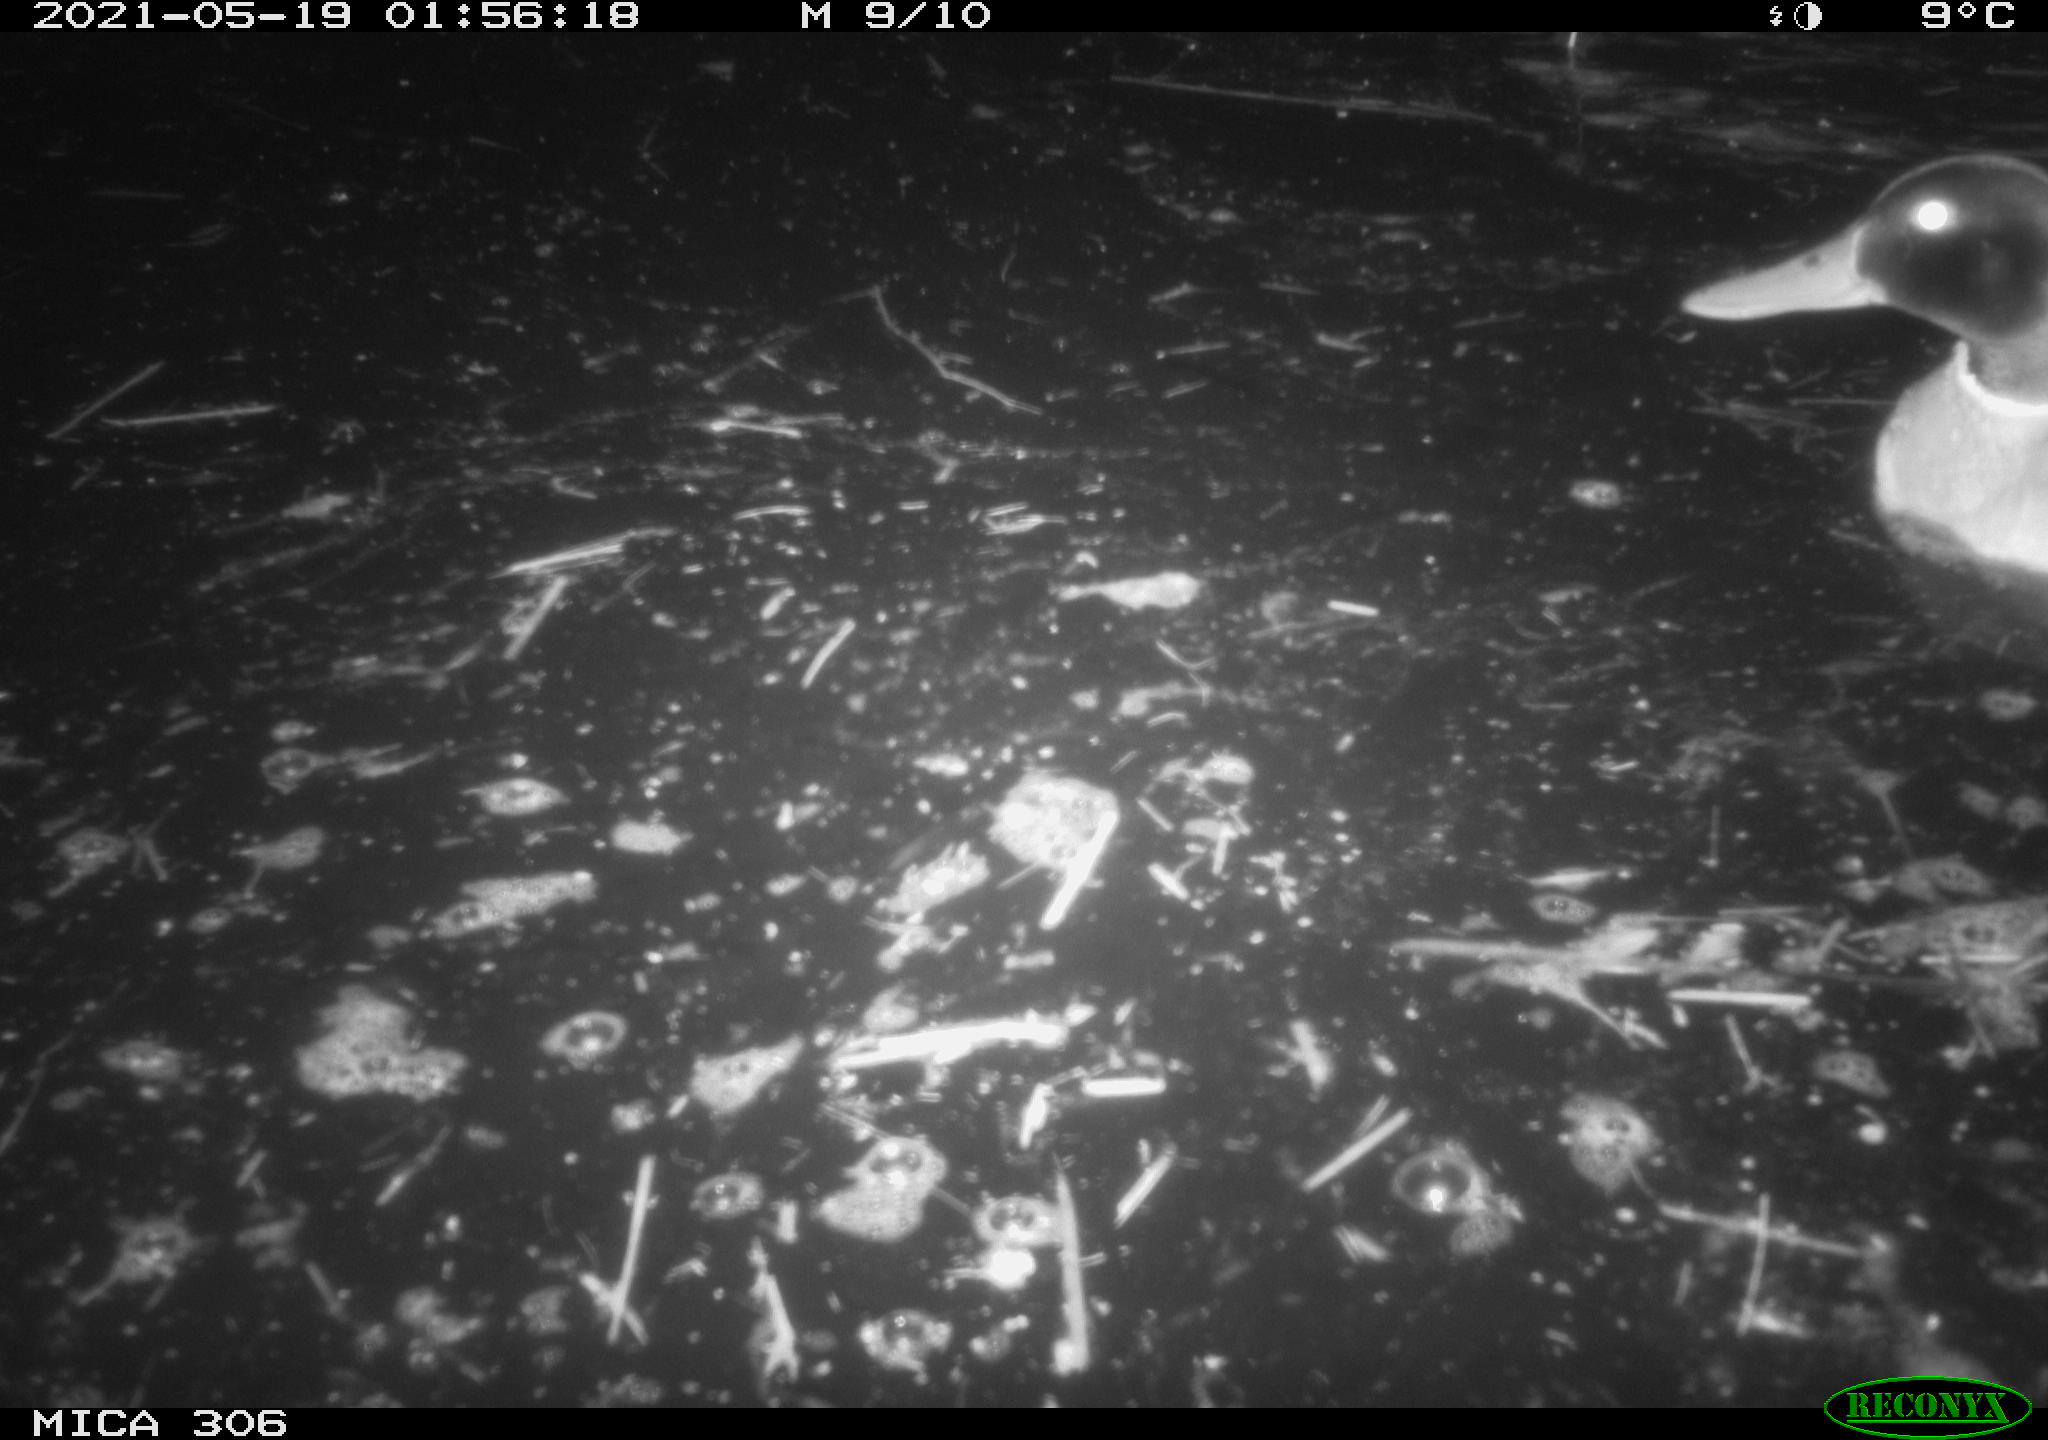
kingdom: Animalia
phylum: Chordata
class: Aves
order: Anseriformes
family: Anatidae
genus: Anas
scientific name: Anas platyrhynchos
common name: Mallard
